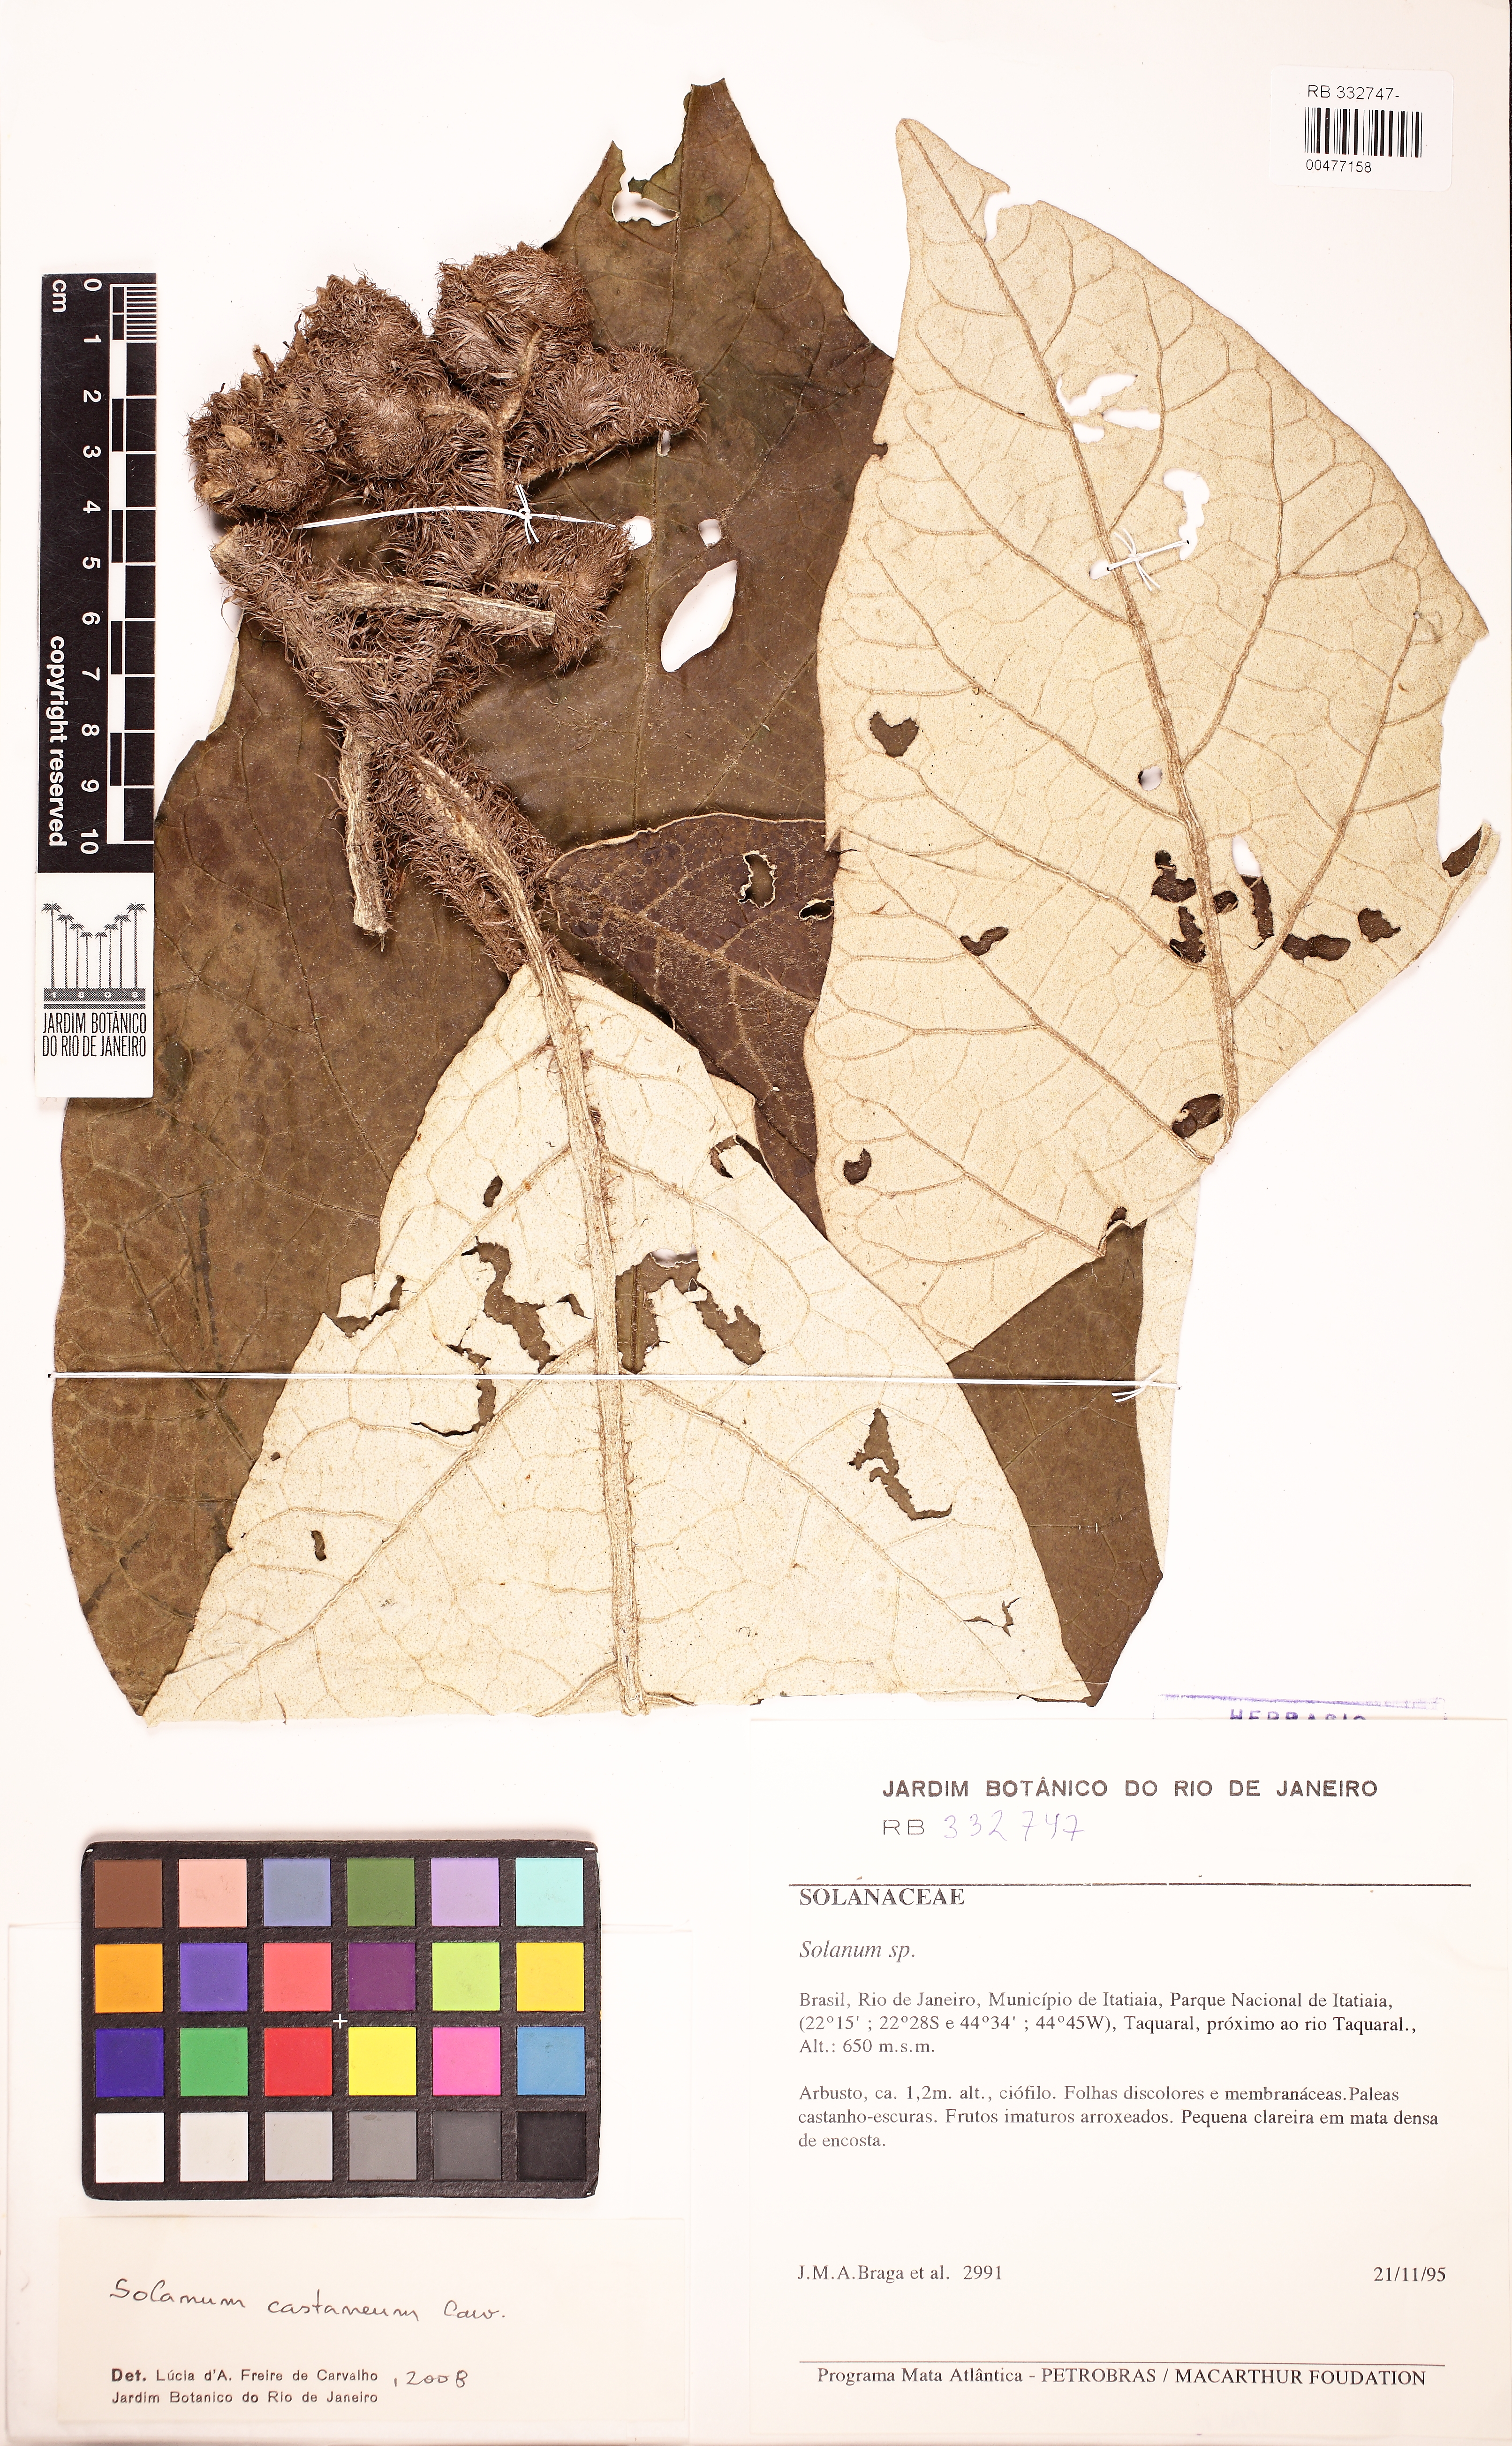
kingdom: Plantae
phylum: Tracheophyta
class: Magnoliopsida
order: Solanales
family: Solanaceae
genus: Solanum
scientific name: Solanum castaneum
